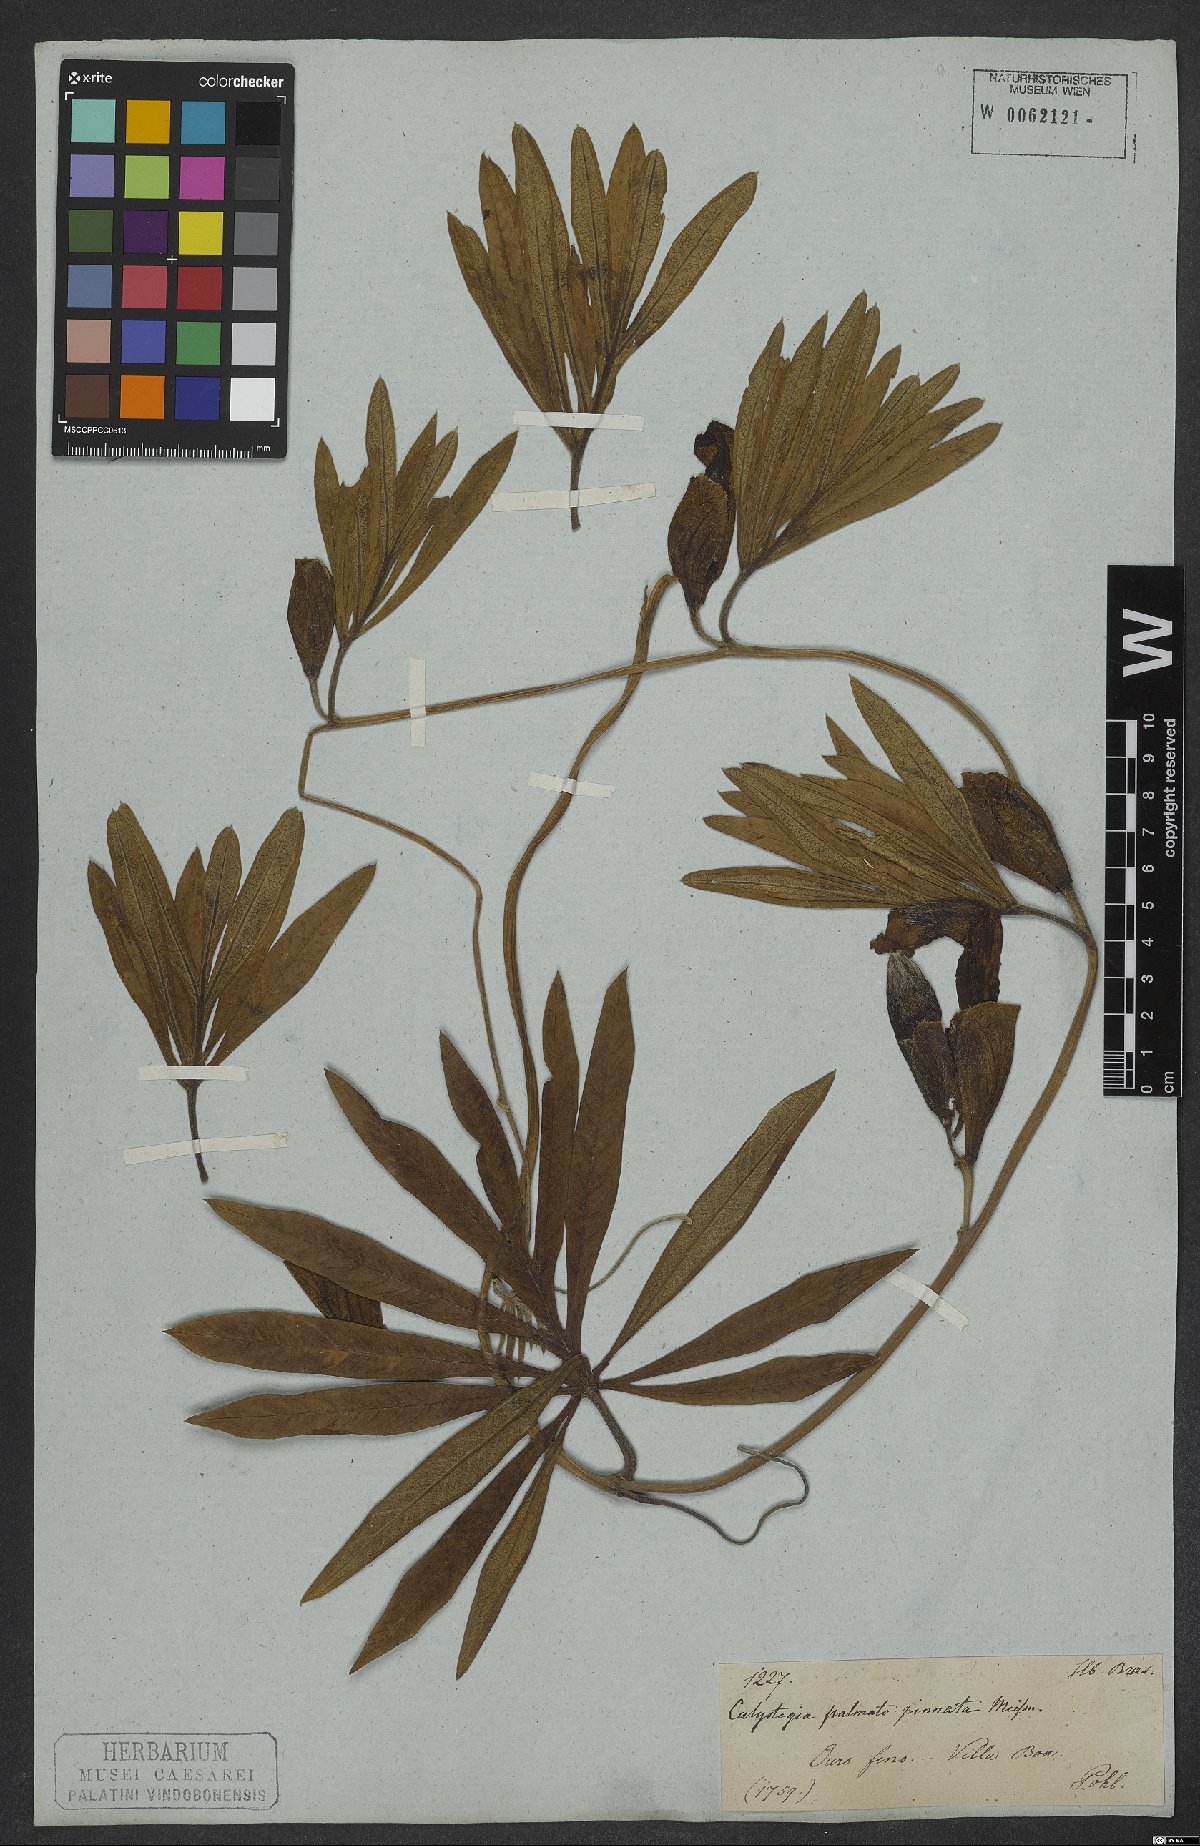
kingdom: Plantae
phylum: Tracheophyta
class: Magnoliopsida
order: Solanales
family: Convolvulaceae
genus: Ipomoea
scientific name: Ipomoea gigantea
